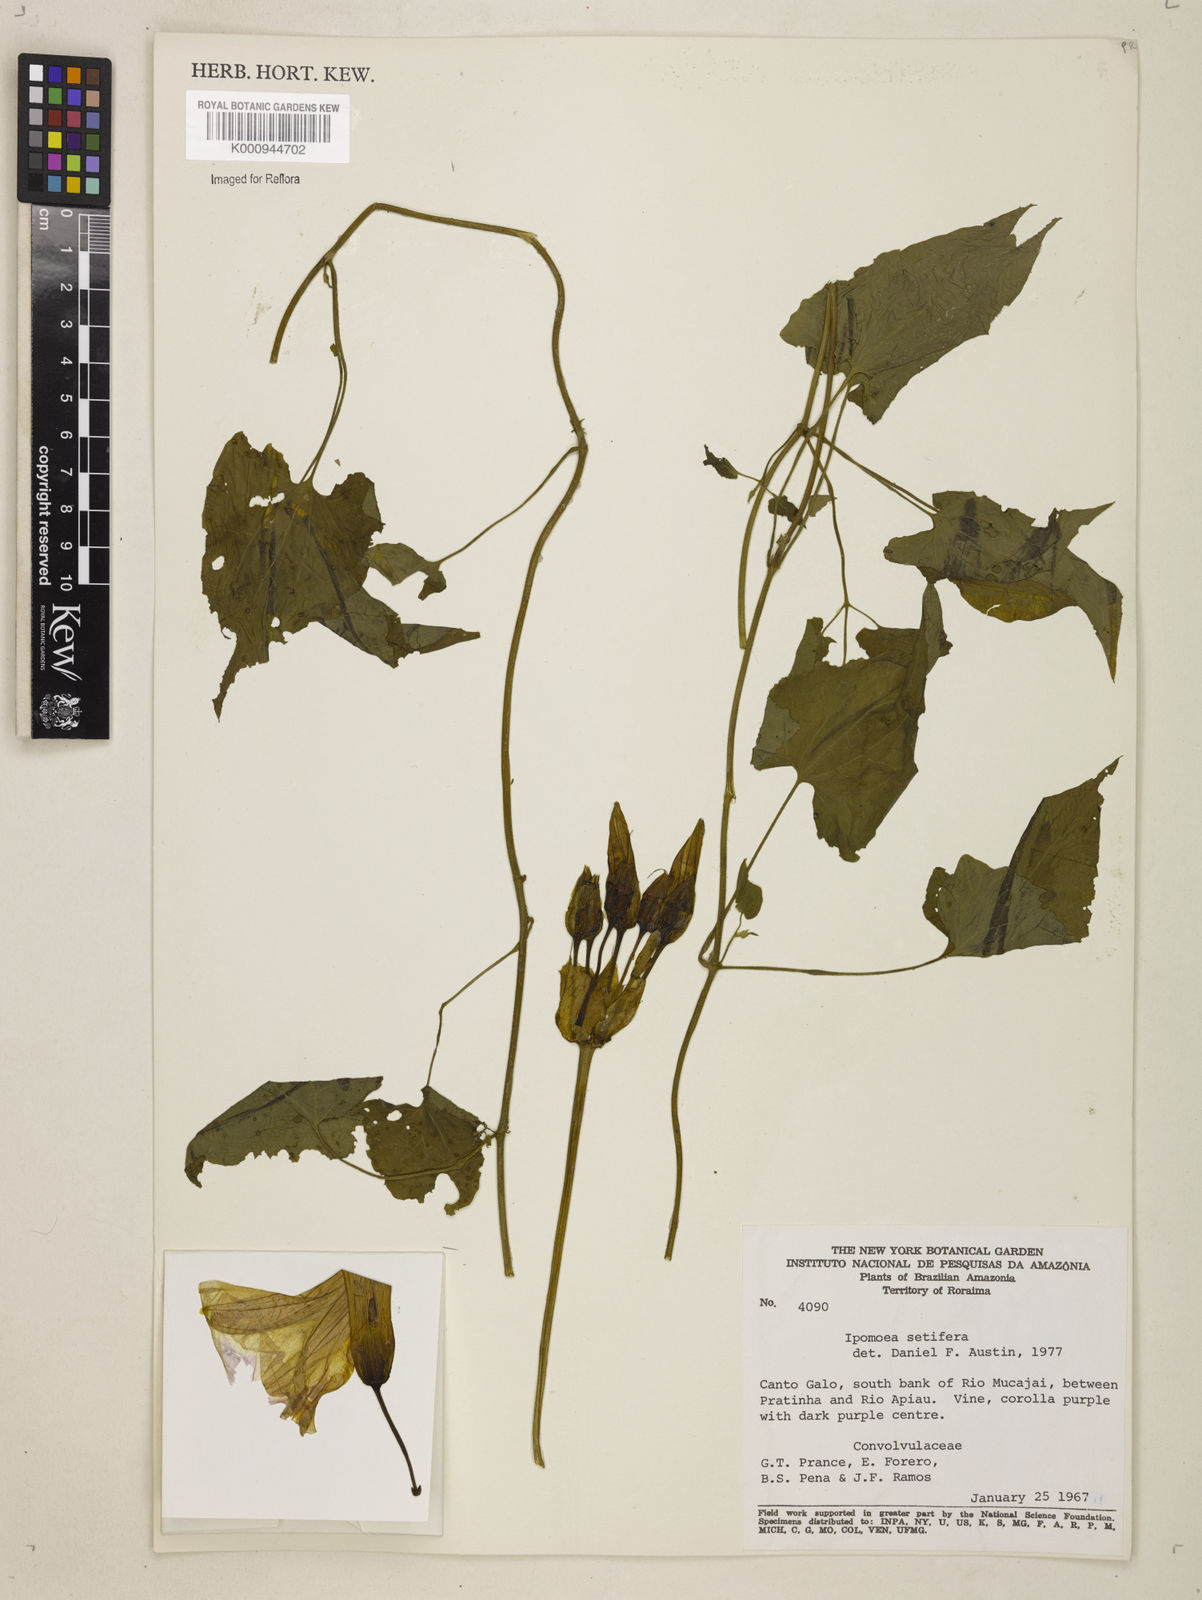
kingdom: Plantae
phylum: Tracheophyta
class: Magnoliopsida
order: Solanales
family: Convolvulaceae
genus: Ipomoea
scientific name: Ipomoea setifera
